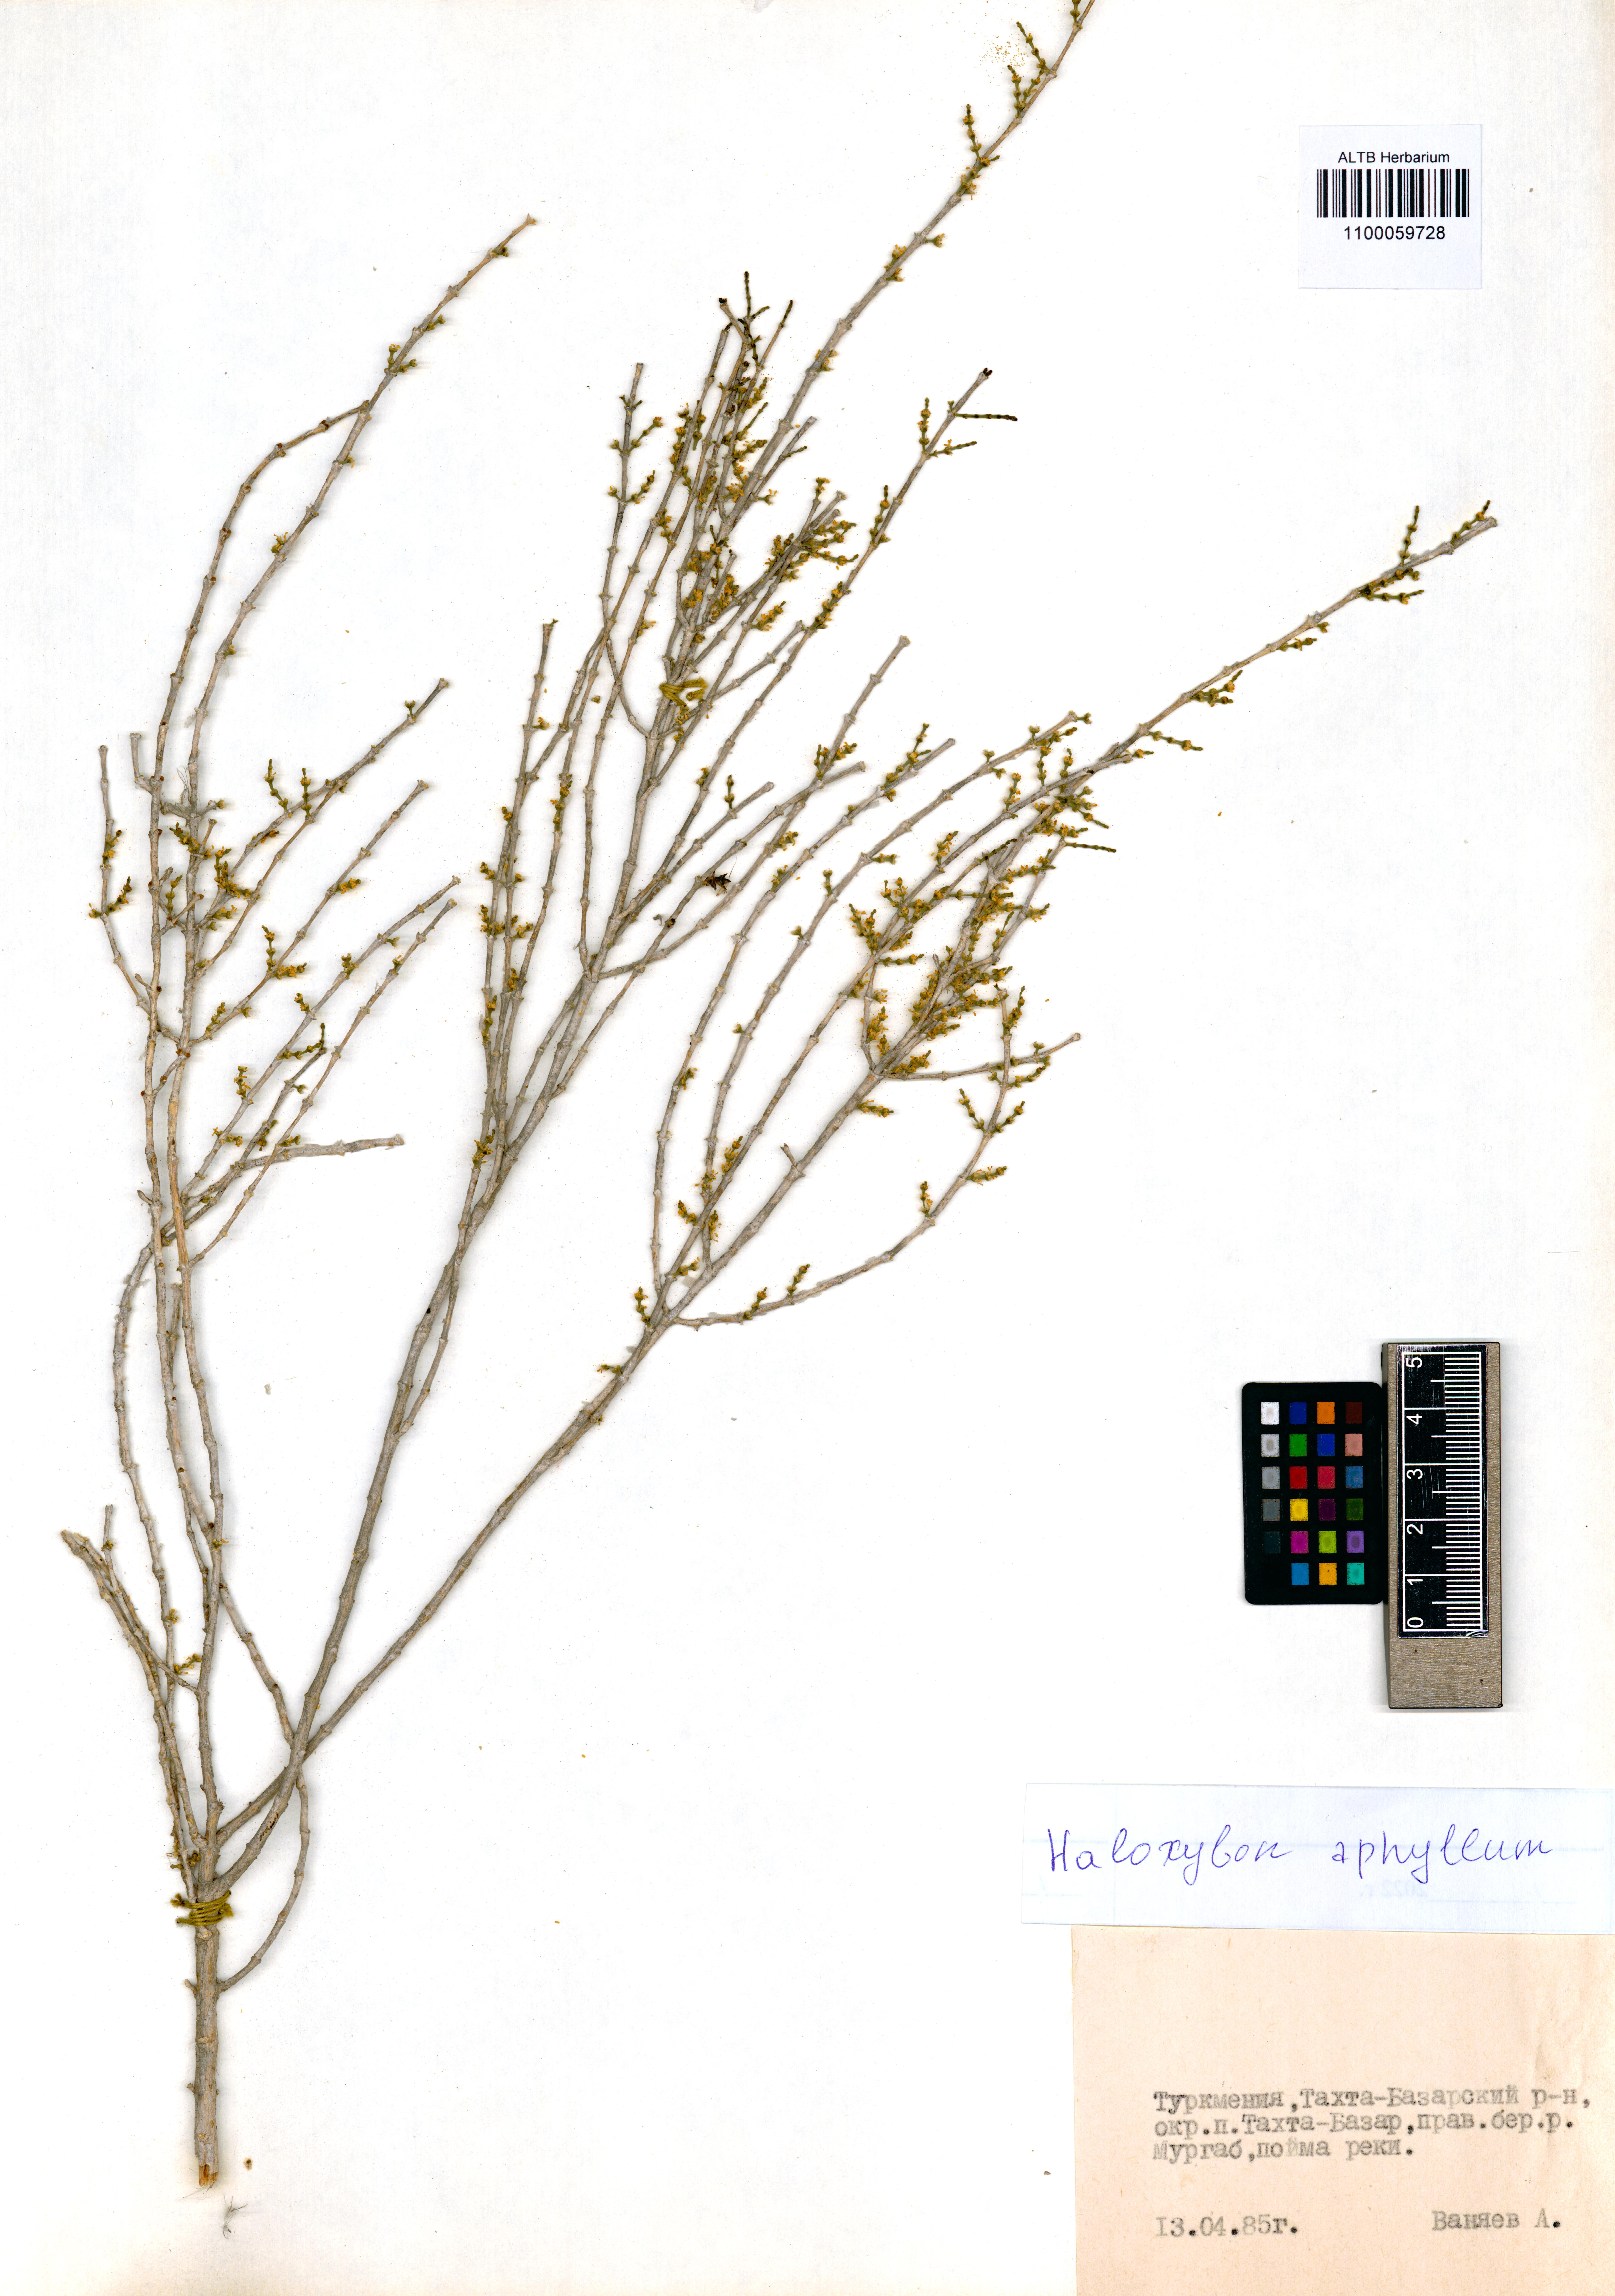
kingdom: Plantae
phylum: Tracheophyta
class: Magnoliopsida
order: Caryophyllales
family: Amaranthaceae
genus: Haloxylon
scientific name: Haloxylon ammodendron
